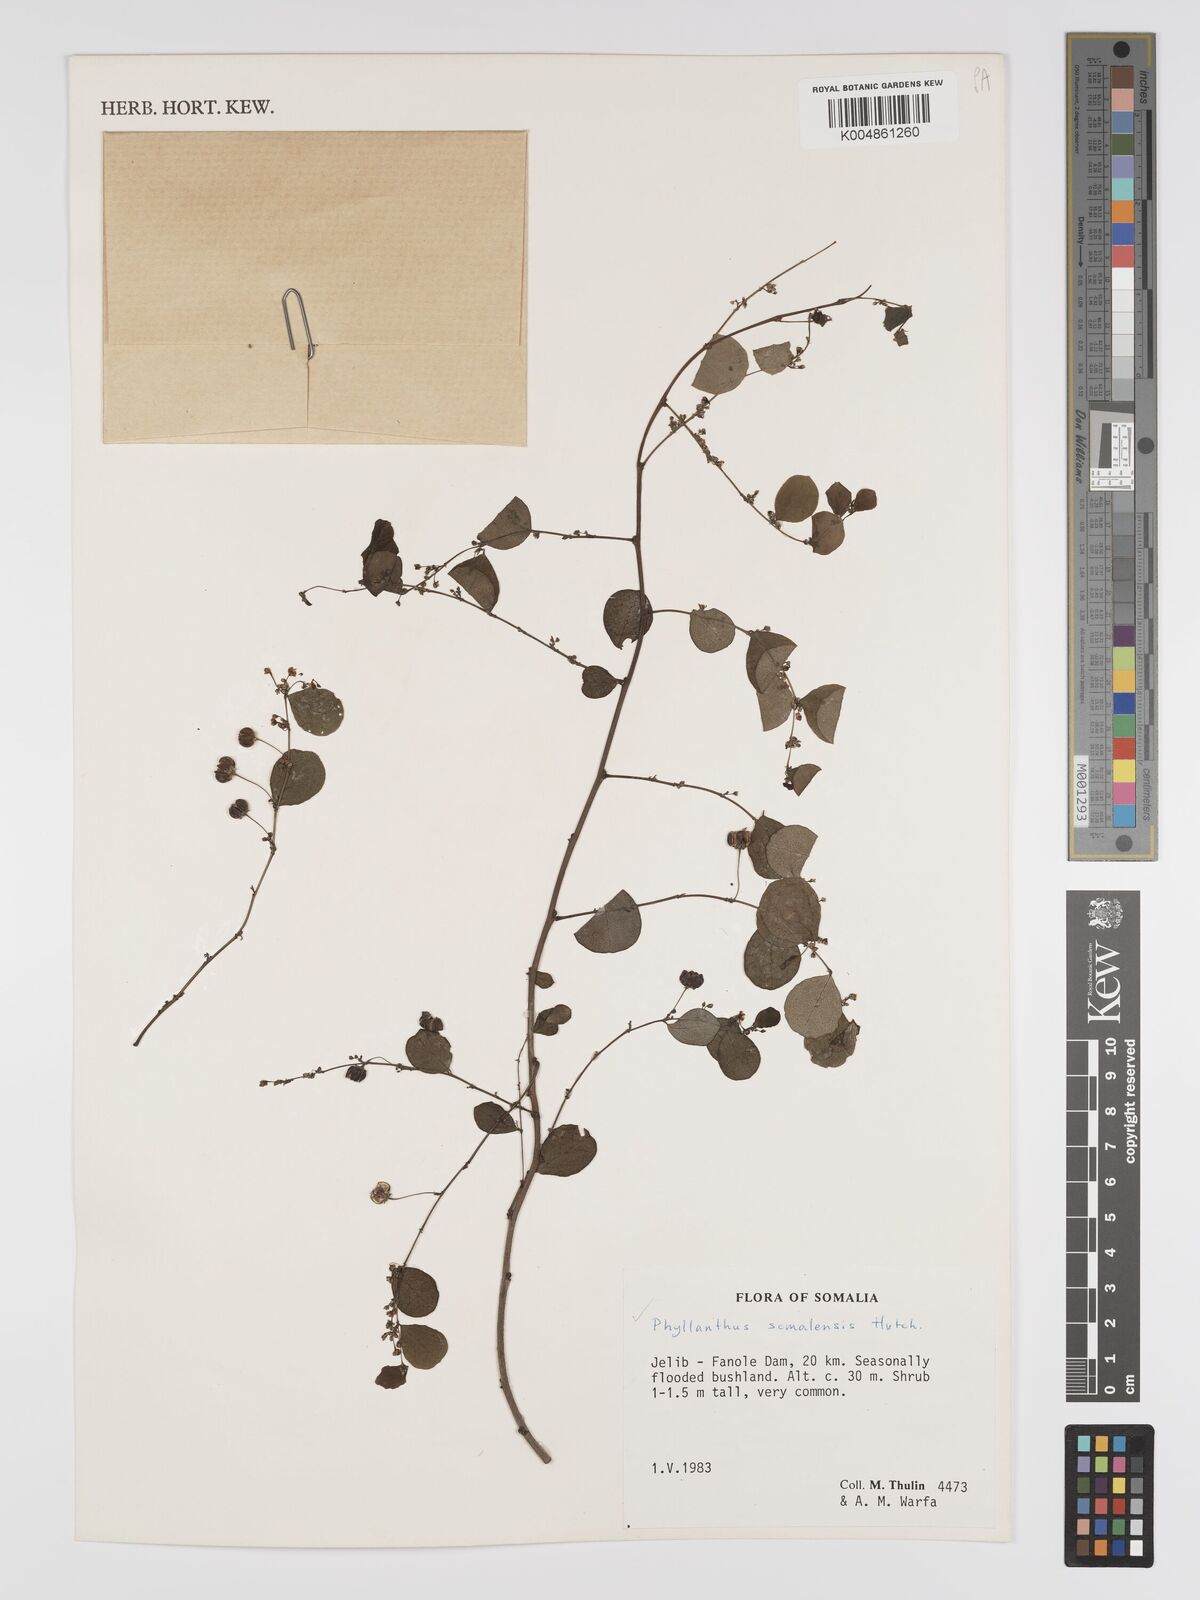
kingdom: Plantae
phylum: Tracheophyta
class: Magnoliopsida
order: Malpighiales
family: Phyllanthaceae
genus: Phyllanthus
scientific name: Phyllanthus somalensis
